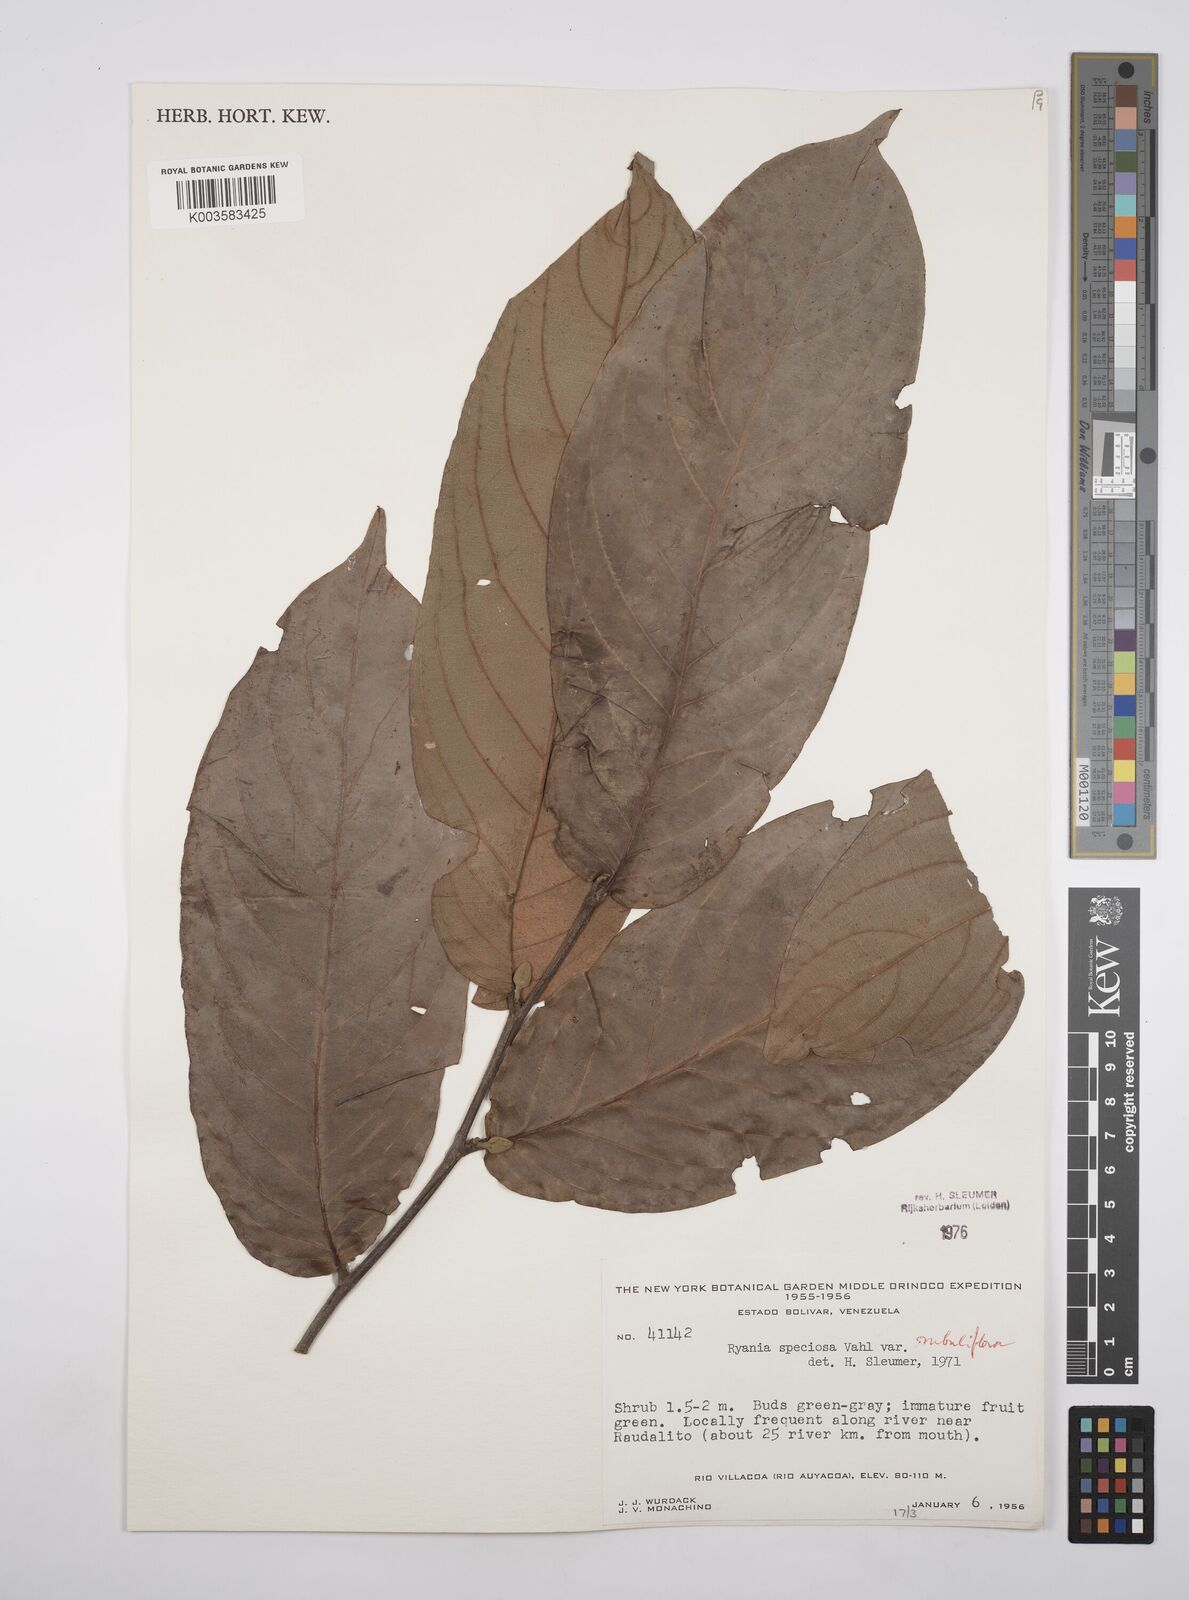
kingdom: Plantae
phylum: Tracheophyta
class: Magnoliopsida
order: Malpighiales
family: Salicaceae
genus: Ryania
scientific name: Ryania speciosa
